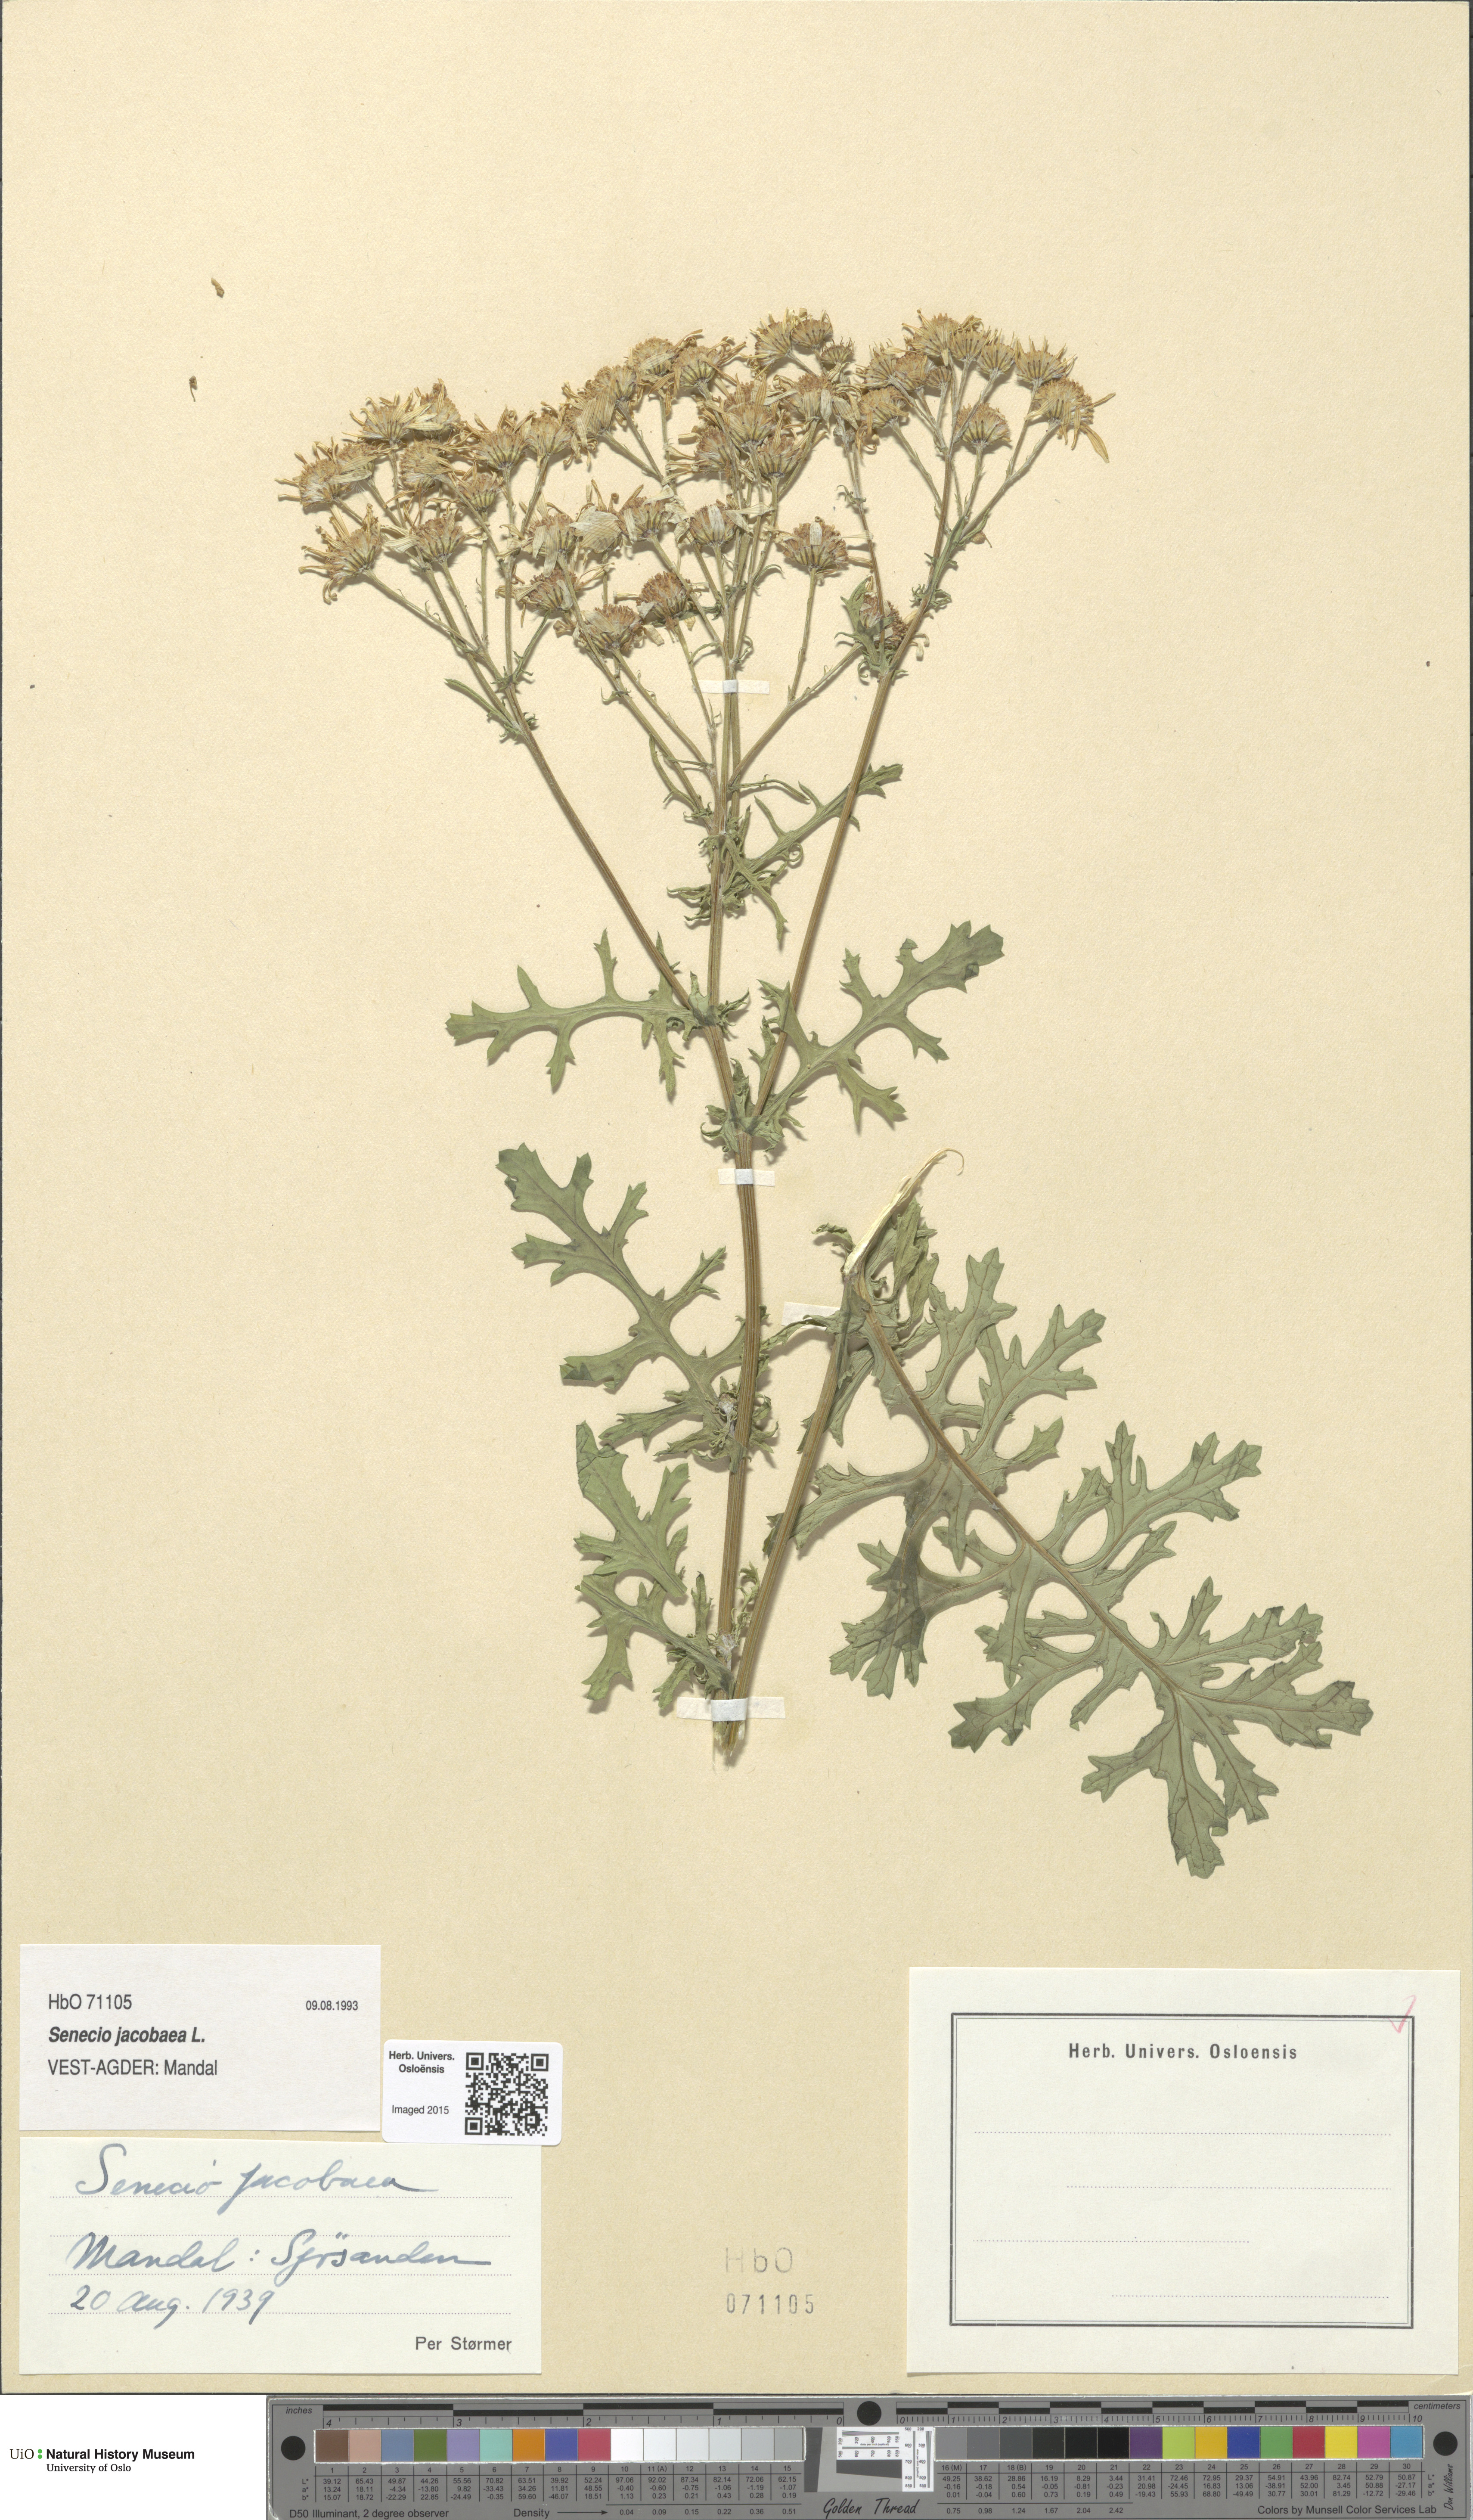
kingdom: Plantae
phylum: Tracheophyta
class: Magnoliopsida
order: Asterales
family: Asteraceae
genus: Jacobaea
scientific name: Jacobaea vulgaris
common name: Stinking willie
